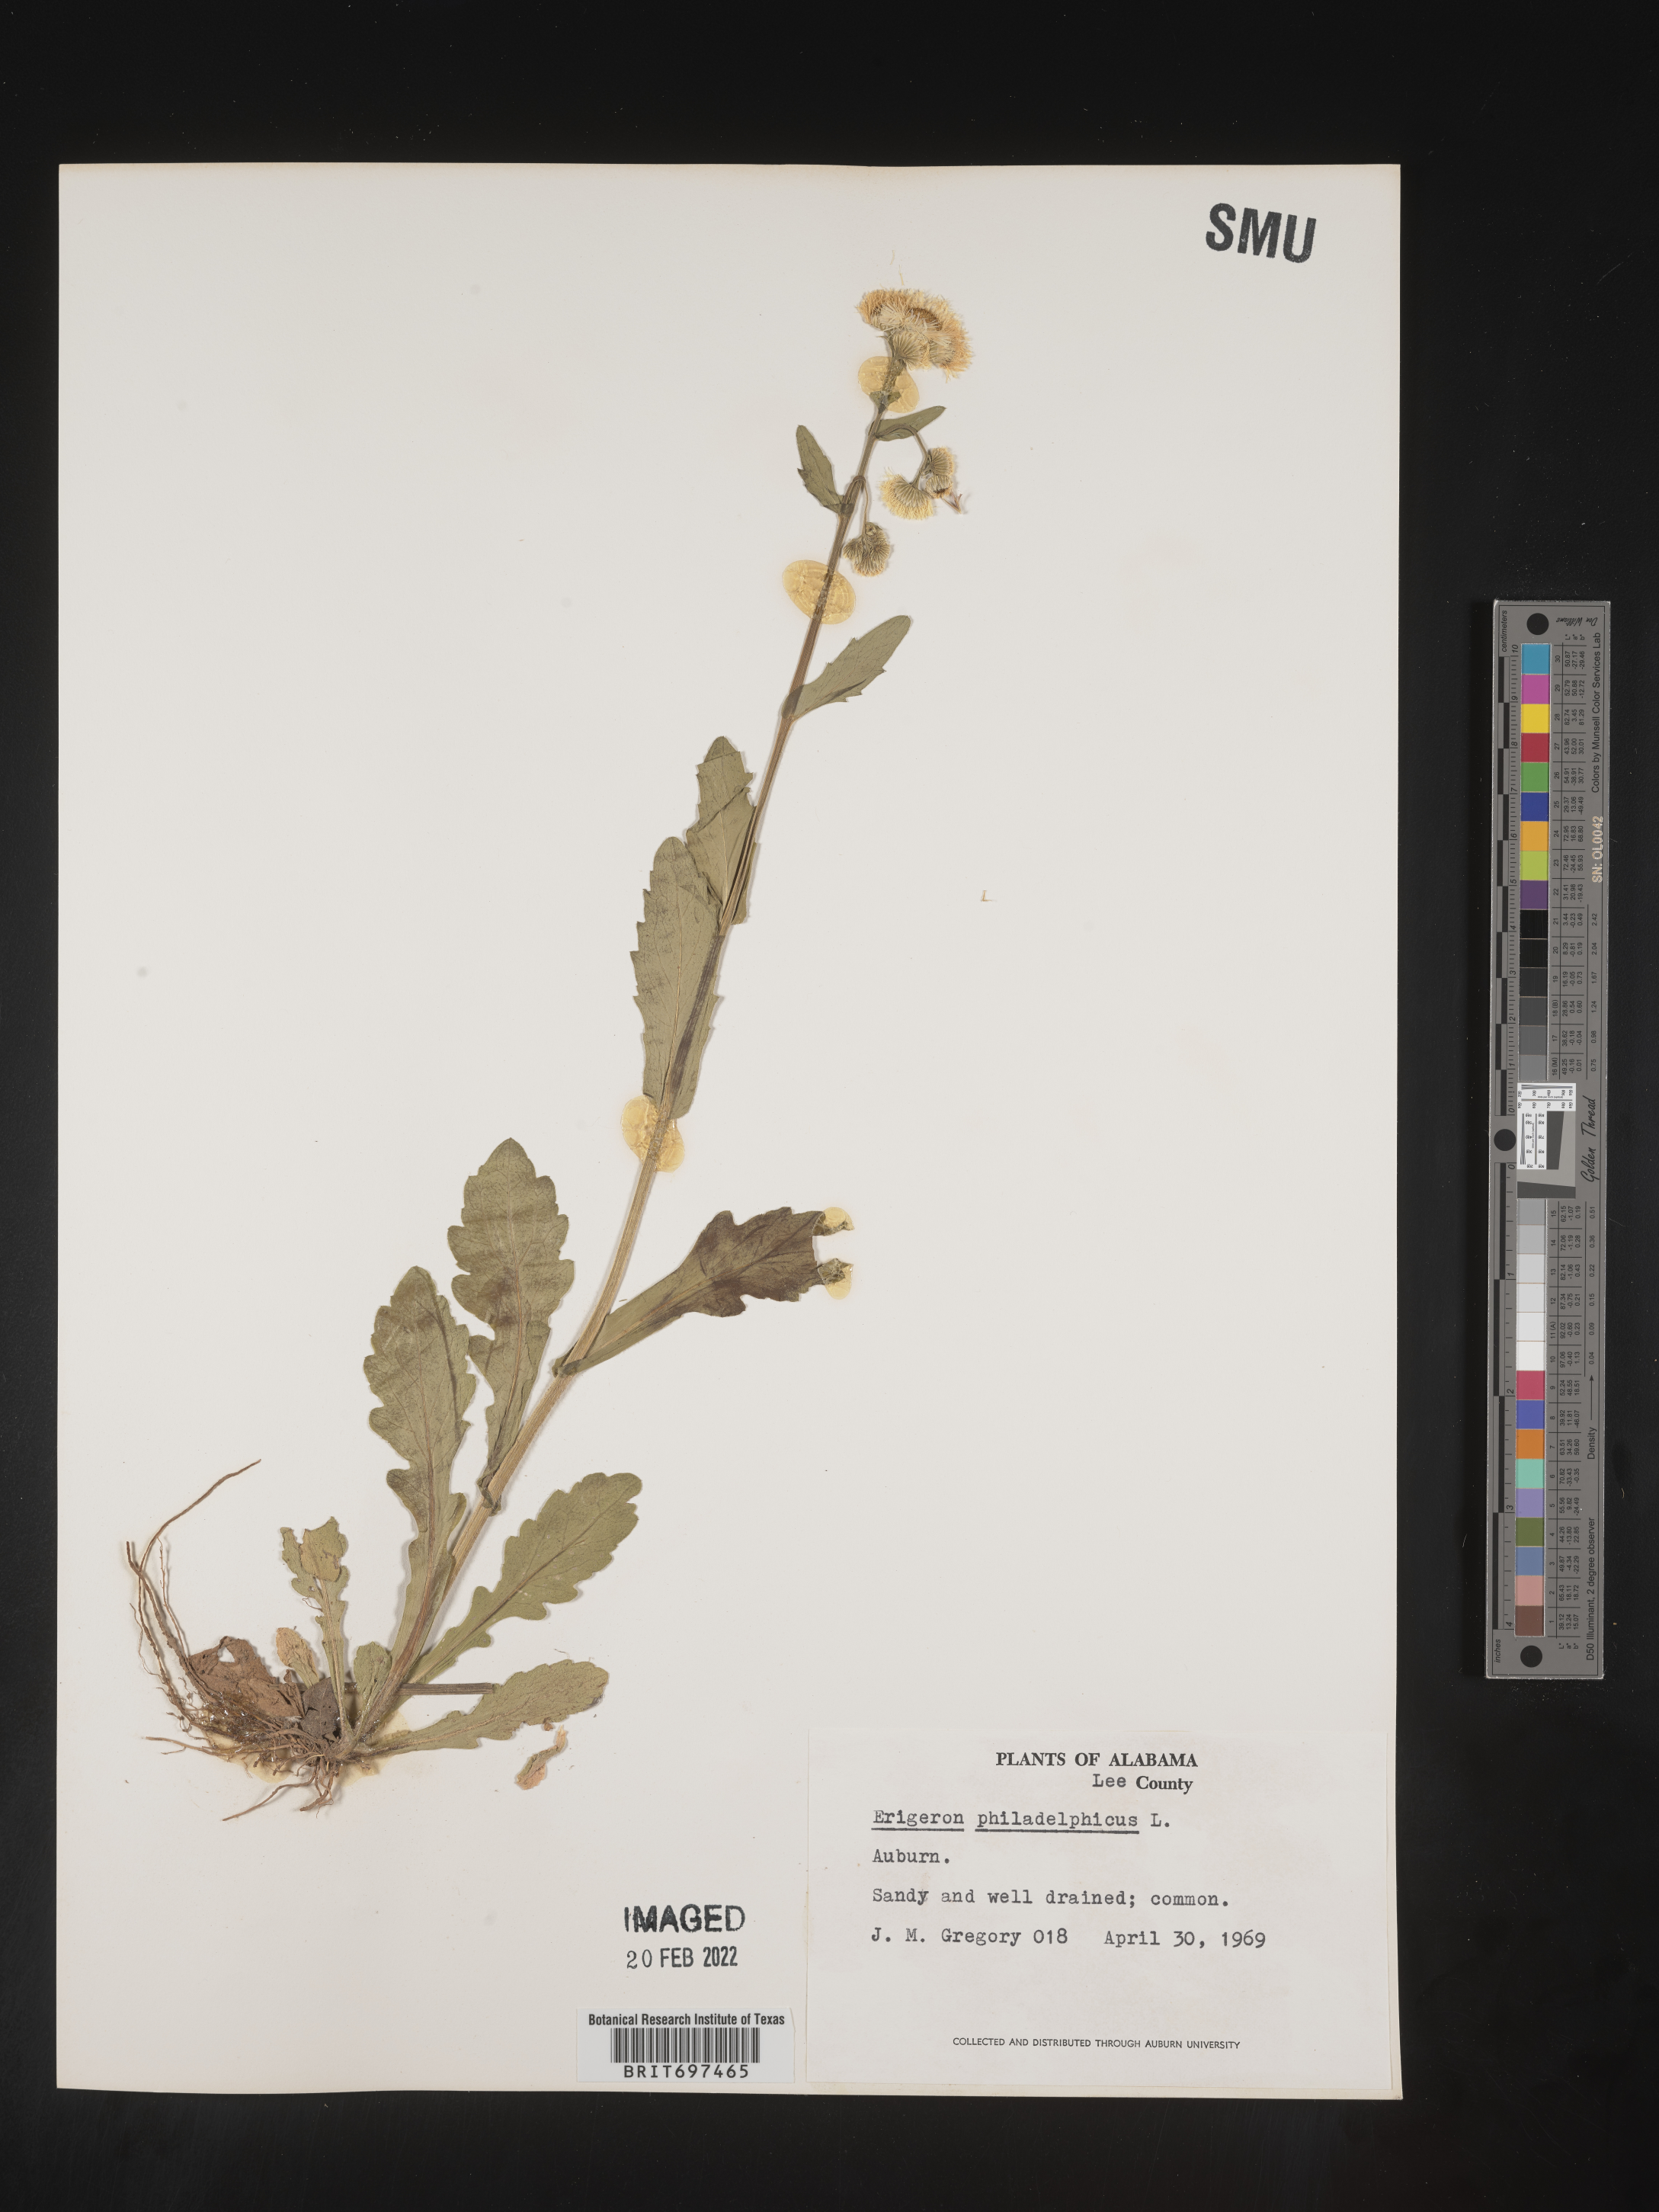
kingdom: Plantae
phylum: Tracheophyta
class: Magnoliopsida
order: Asterales
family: Asteraceae
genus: Erigeron
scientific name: Erigeron philadelphicus
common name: Robin's-plantain
